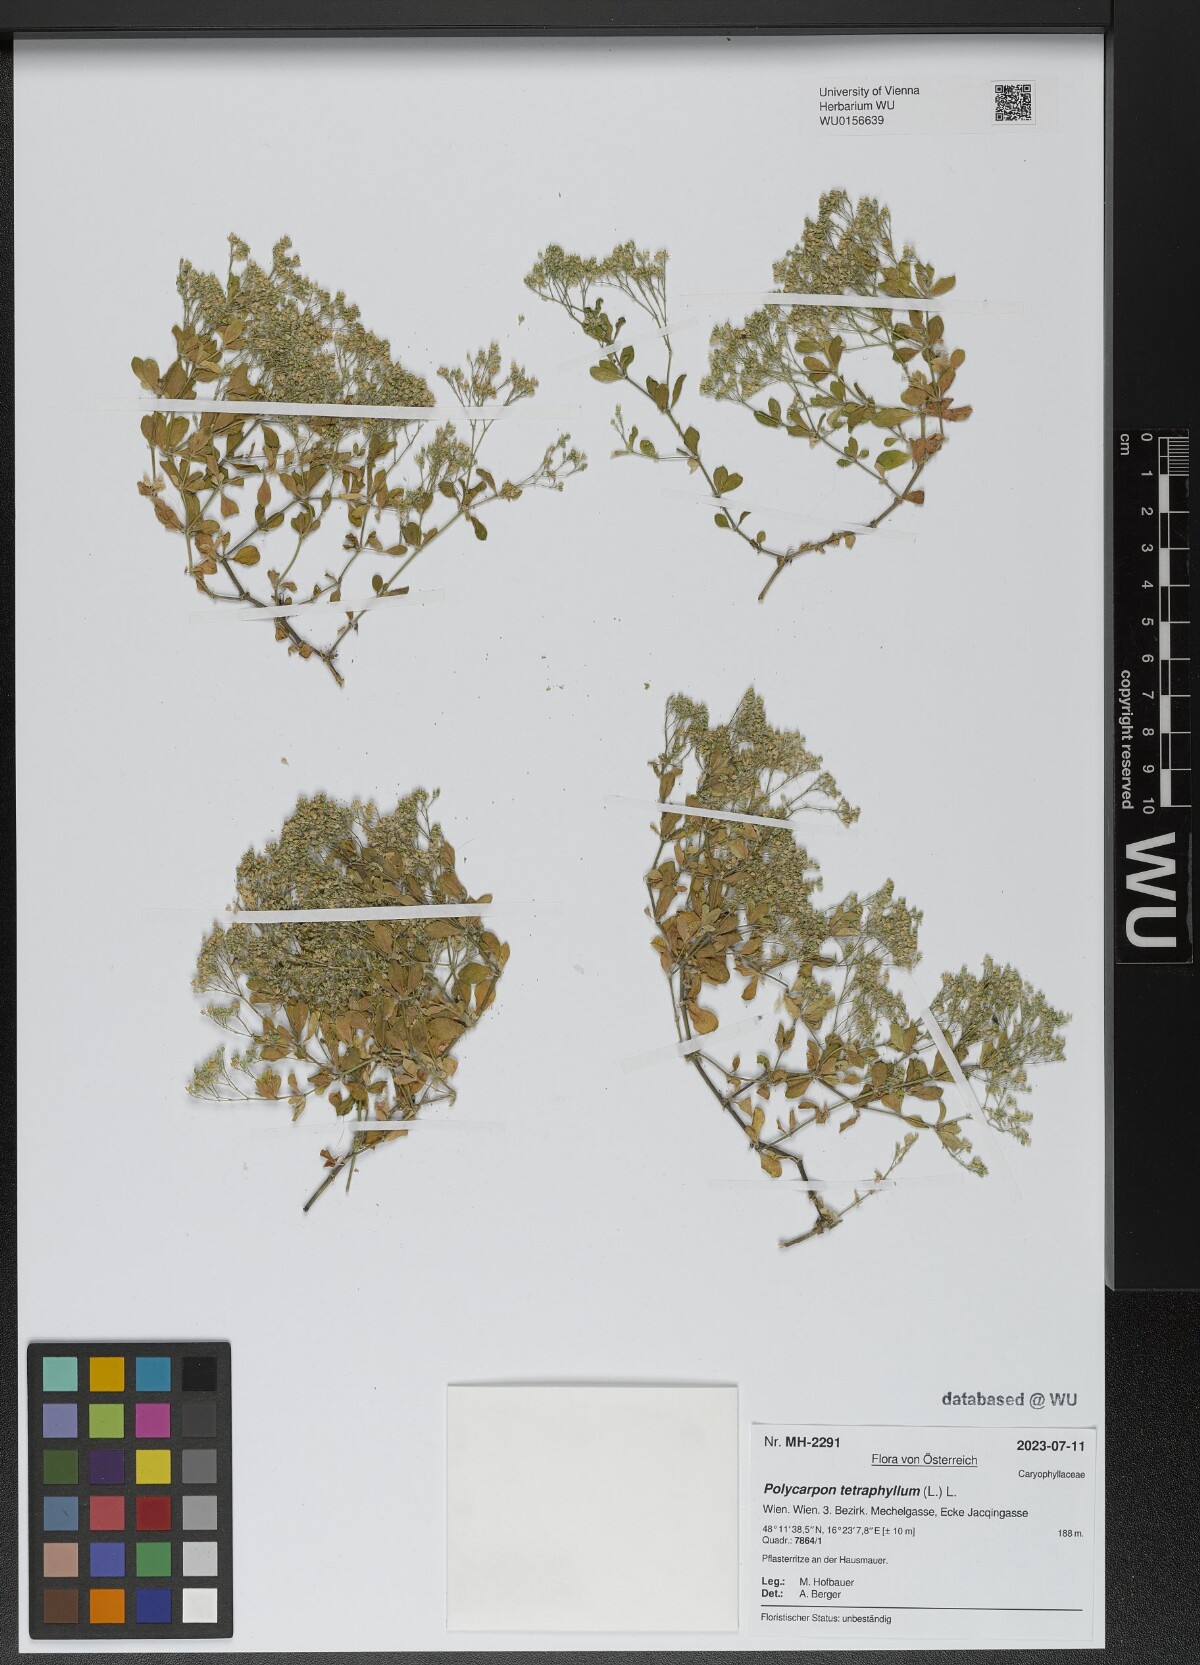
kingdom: Plantae
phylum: Tracheophyta
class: Magnoliopsida
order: Caryophyllales
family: Caryophyllaceae
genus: Polycarpon
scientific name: Polycarpon tetraphyllum
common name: Four-leaved all-seed
